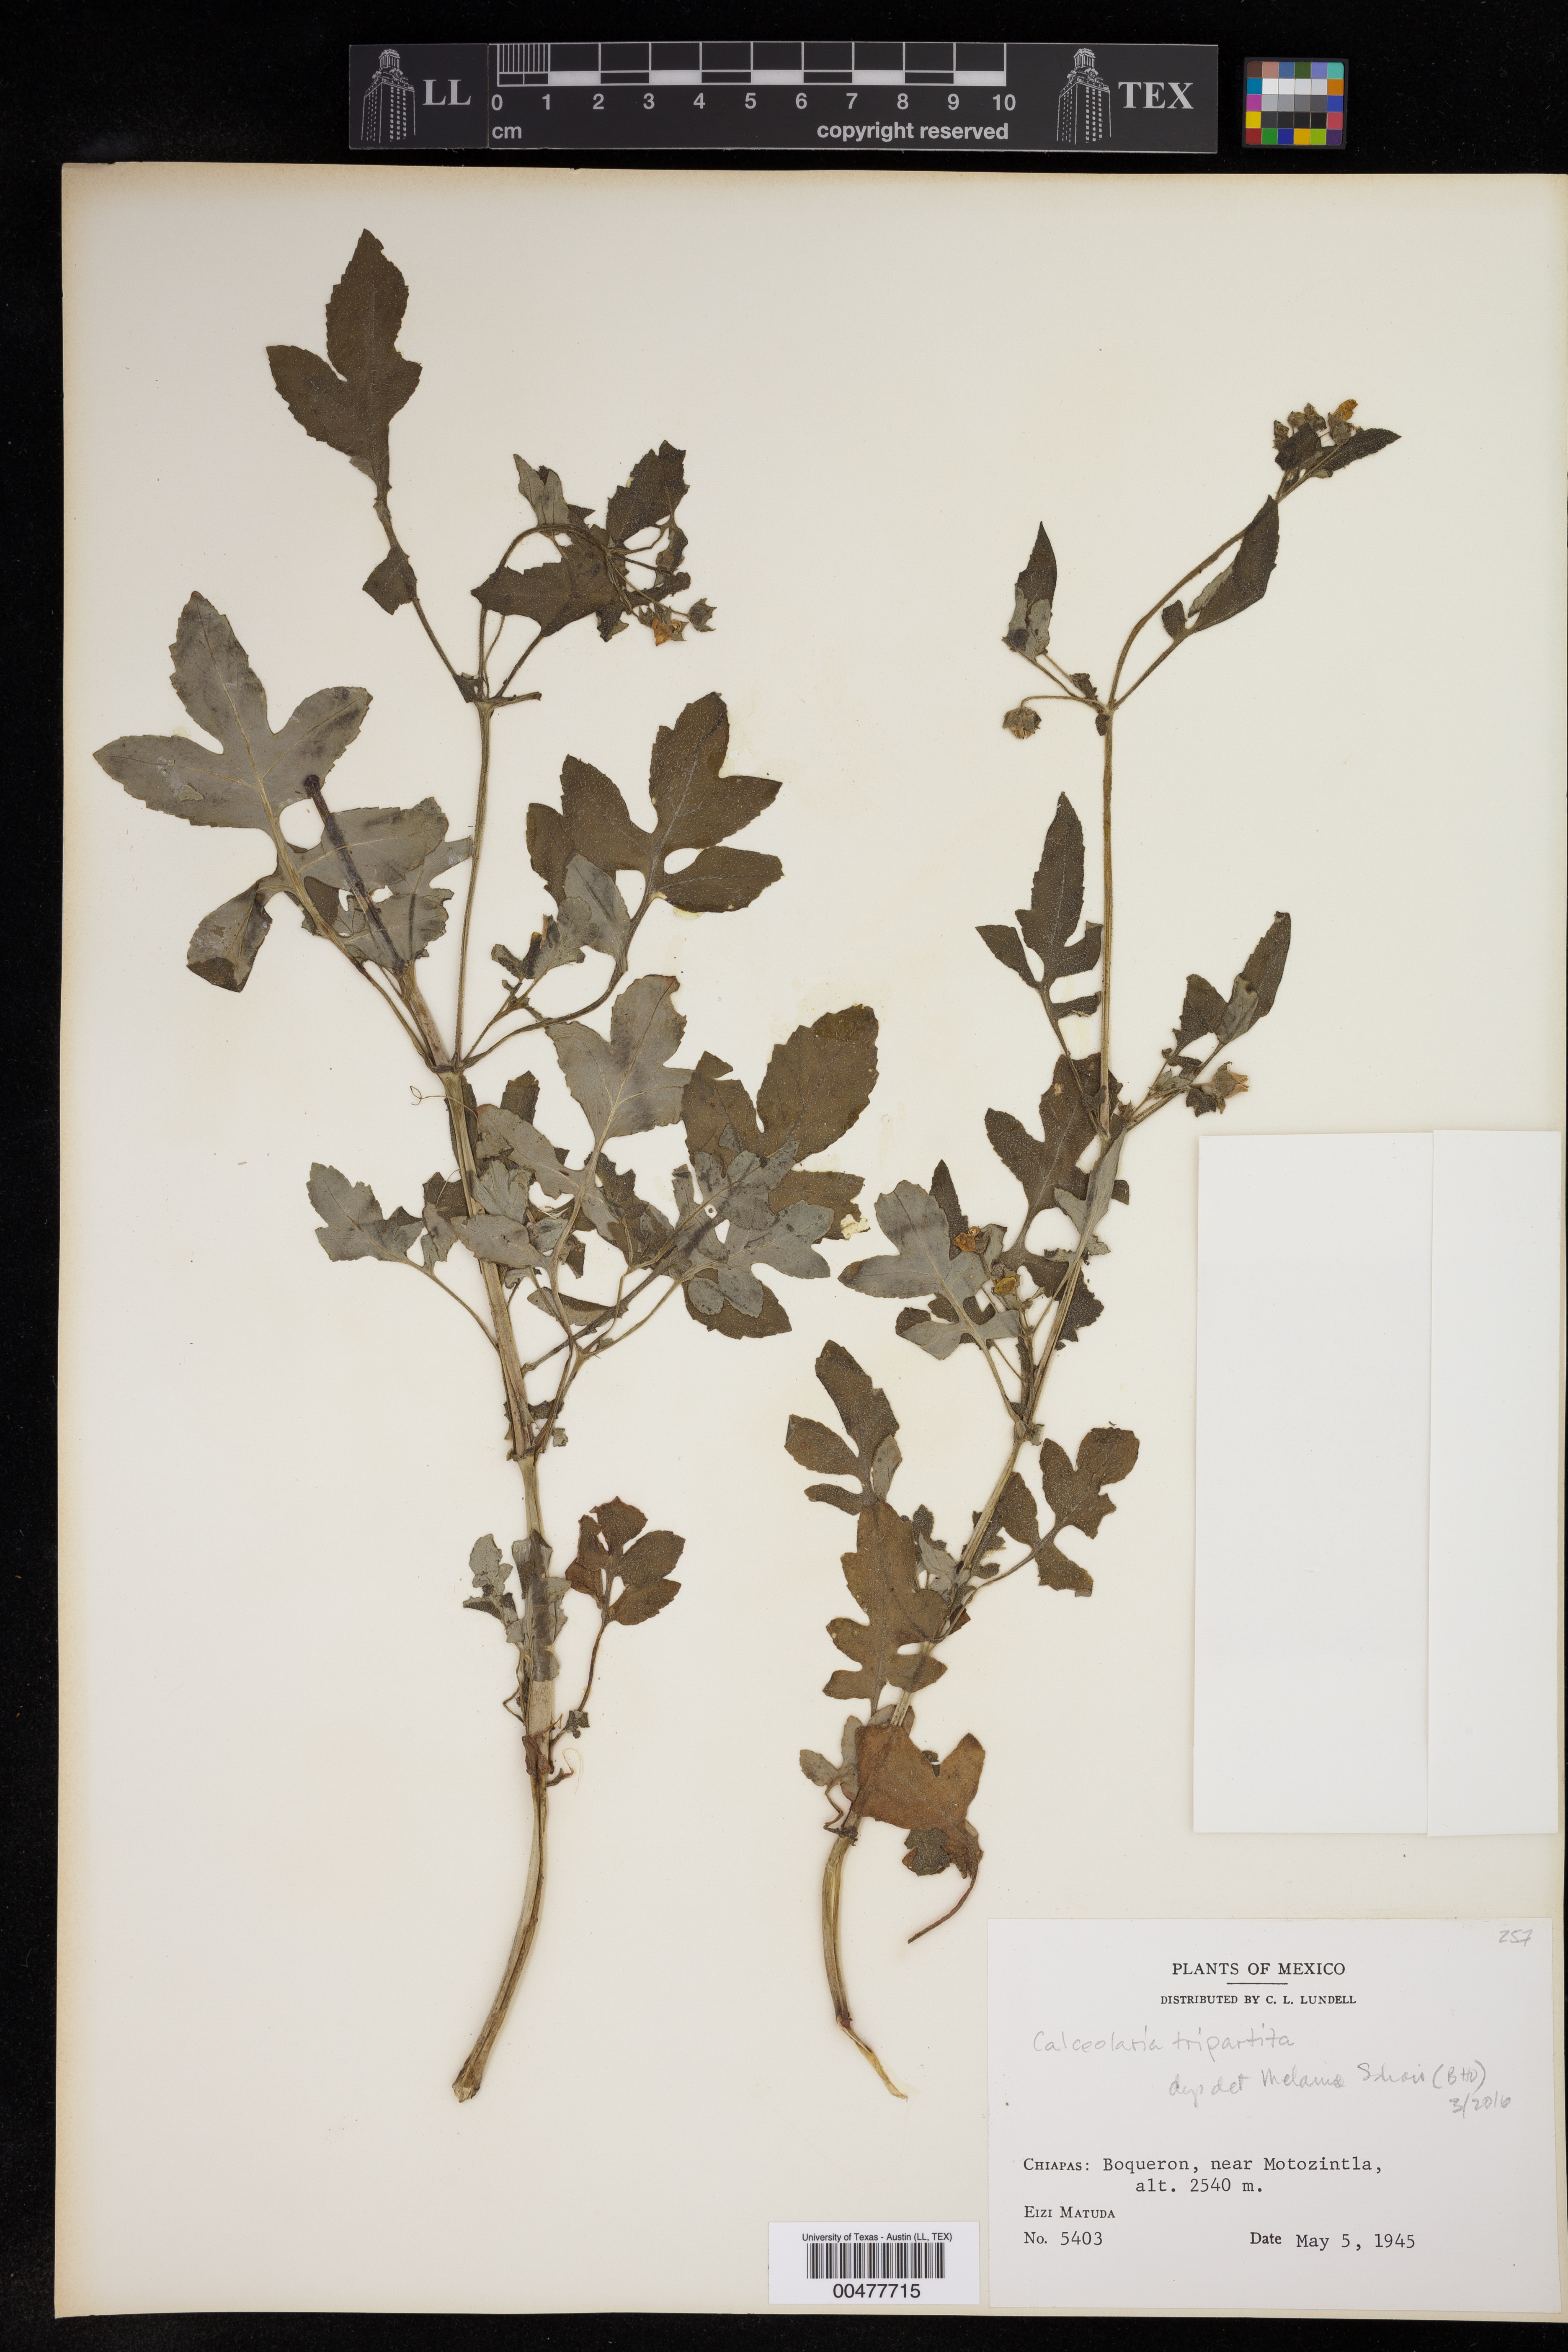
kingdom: Plantae
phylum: Tracheophyta
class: Magnoliopsida
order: Lamiales
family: Calceolariaceae
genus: Calceolaria
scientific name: Calceolaria tripartita
